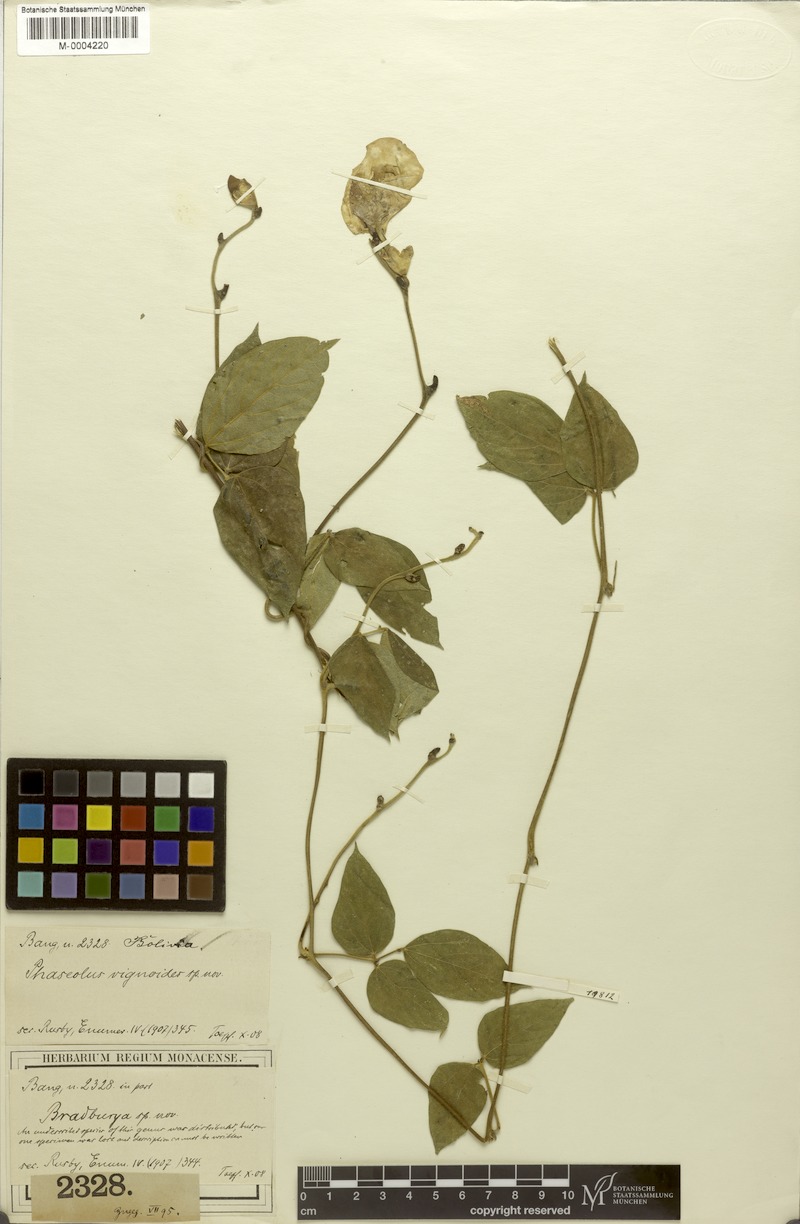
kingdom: Plantae
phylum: Tracheophyta
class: Magnoliopsida
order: Fabales
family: Fabaceae
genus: Condylostylis
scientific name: Condylostylis vignoides
